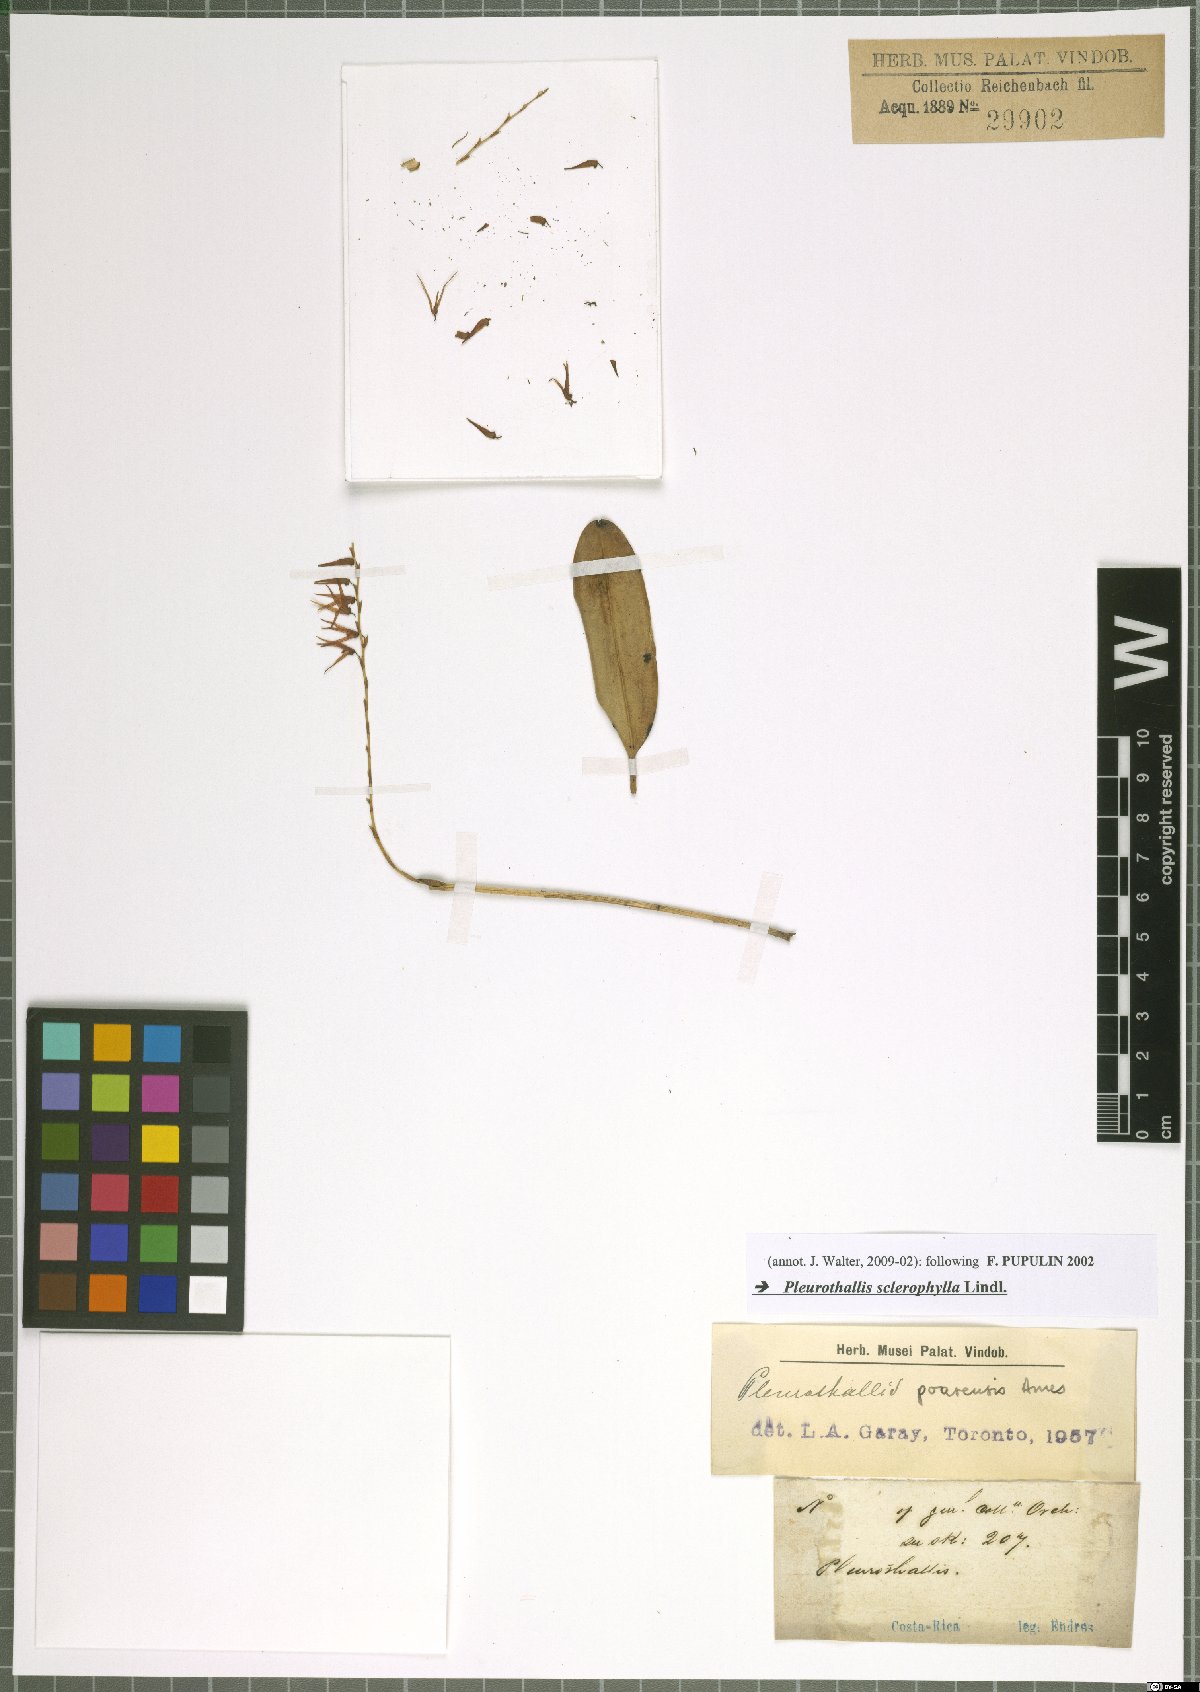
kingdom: Plantae
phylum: Tracheophyta
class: Liliopsida
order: Asparagales
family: Orchidaceae
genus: Stelis
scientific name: Stelis sclerophylla
